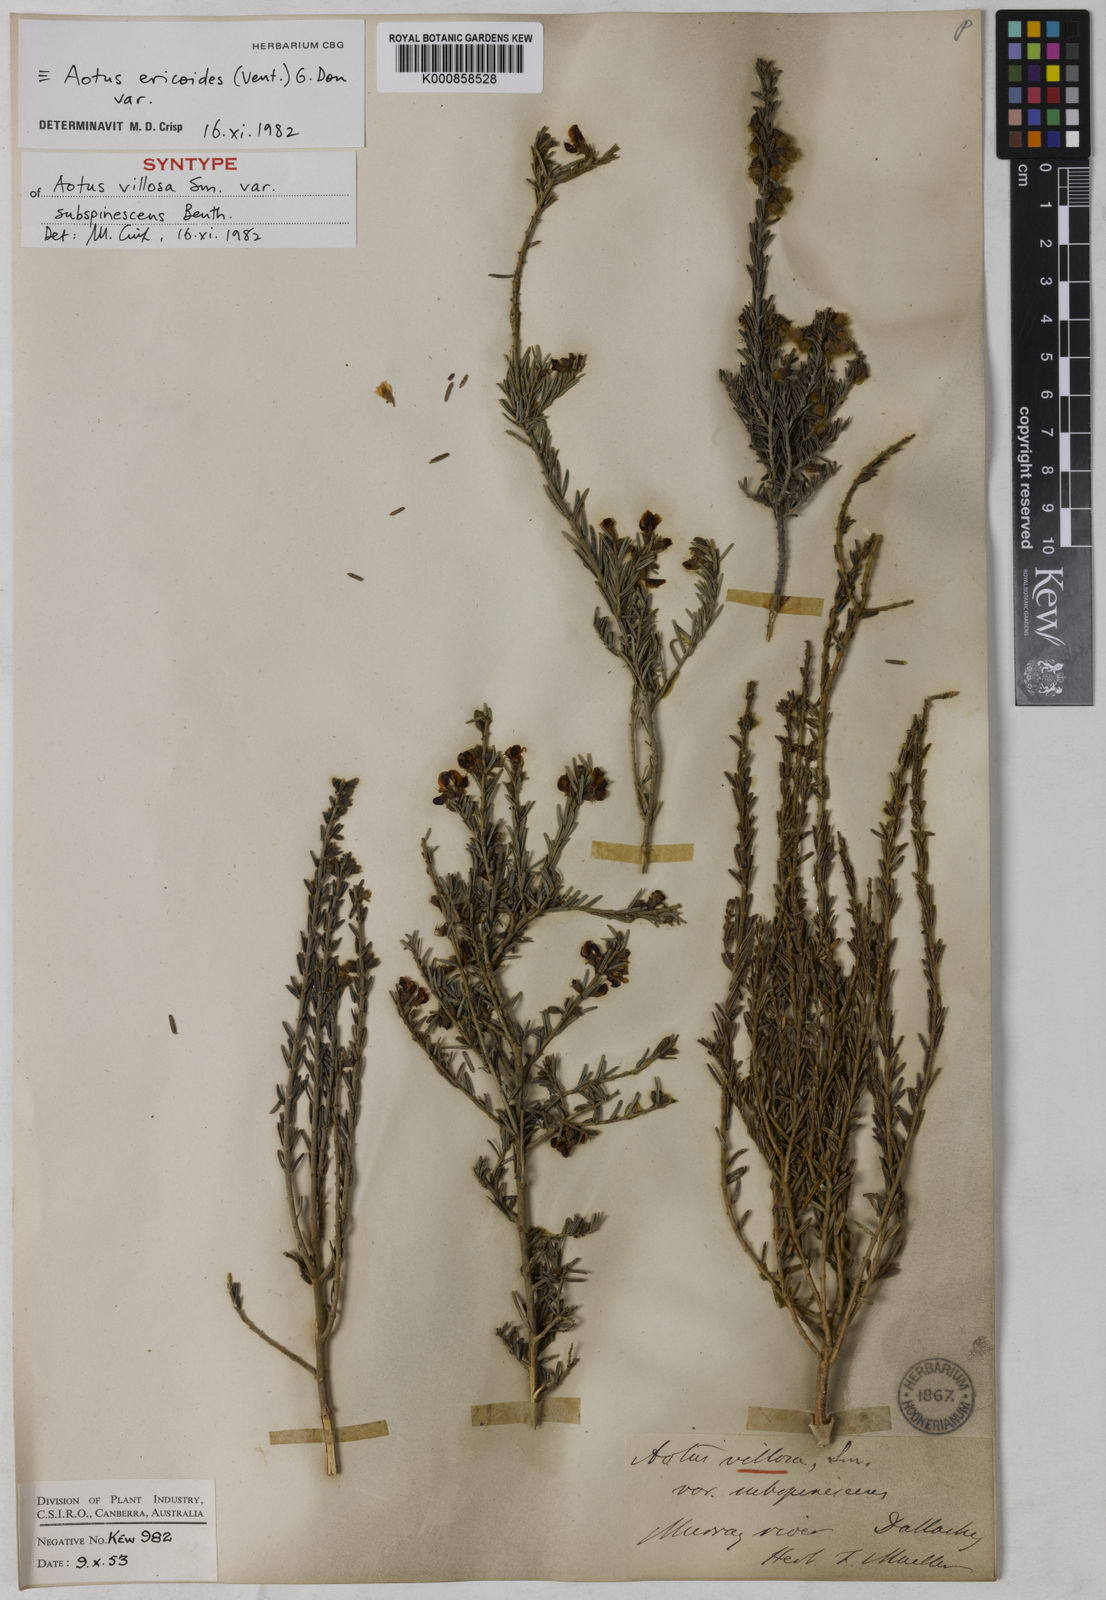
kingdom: Plantae
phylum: Tracheophyta
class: Magnoliopsida
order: Fabales
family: Fabaceae
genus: Aotus
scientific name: Aotus subspinescens
